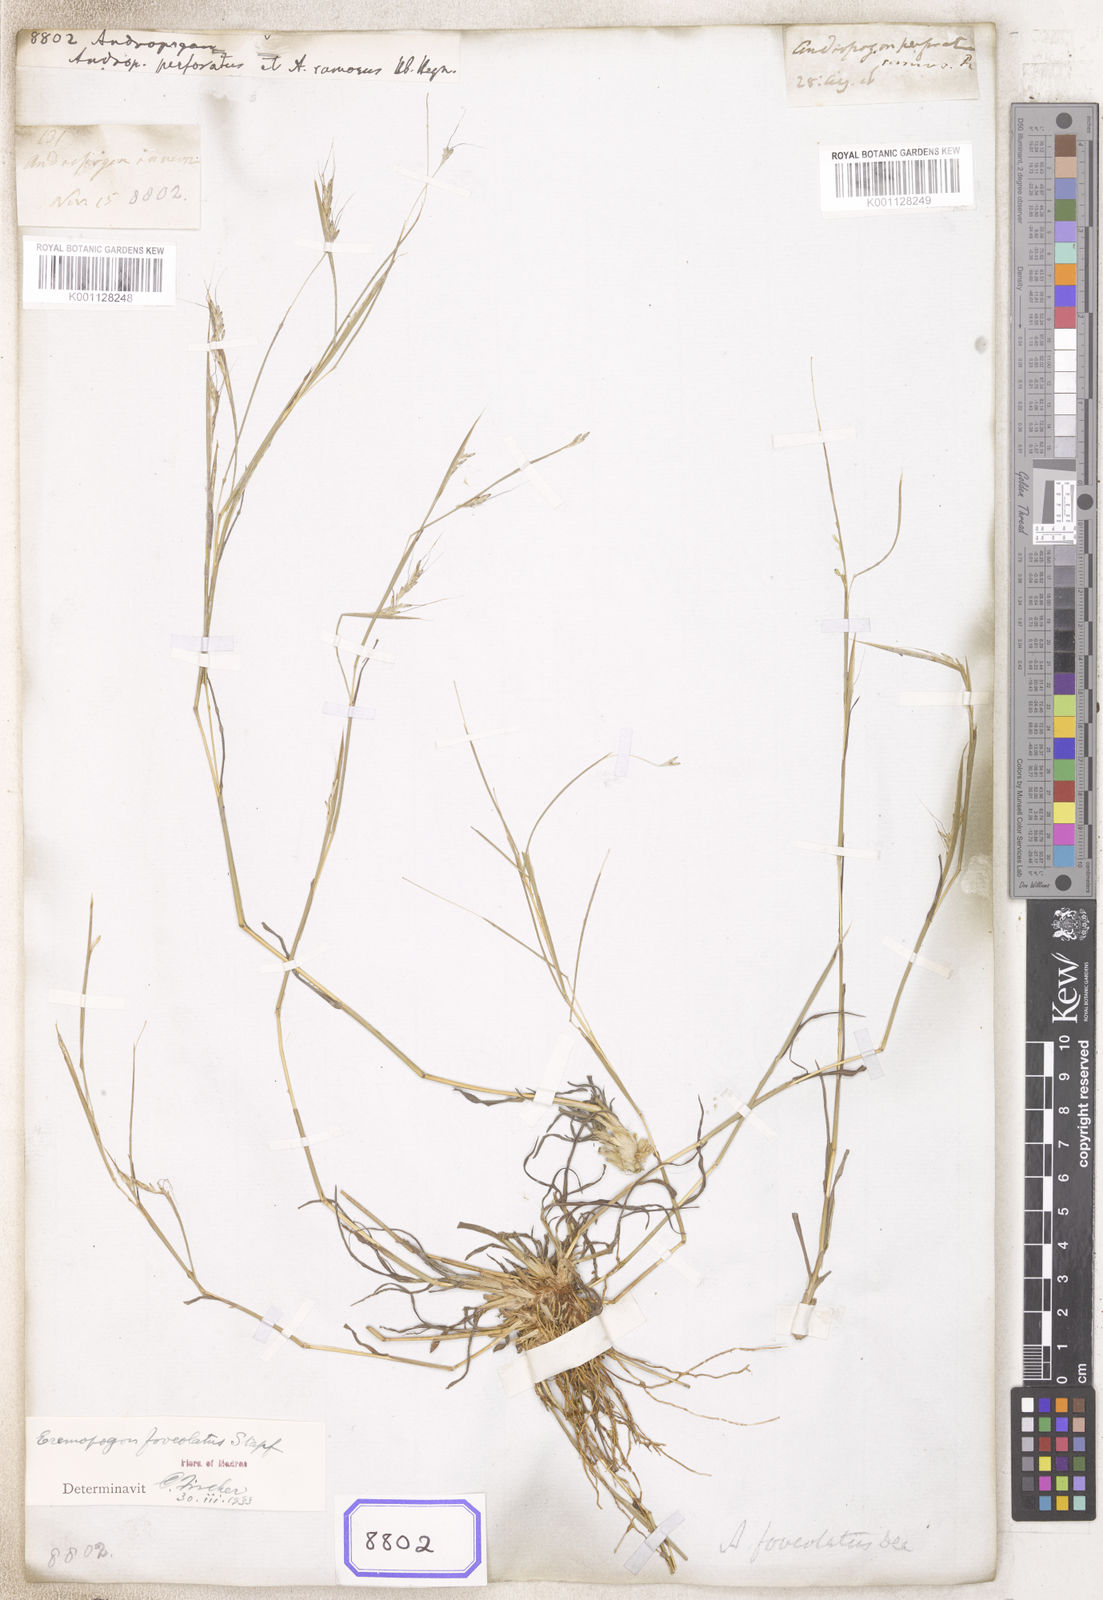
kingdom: Plantae
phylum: Tracheophyta
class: Liliopsida
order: Poales
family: Poaceae
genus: Andropogon
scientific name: Andropogon
